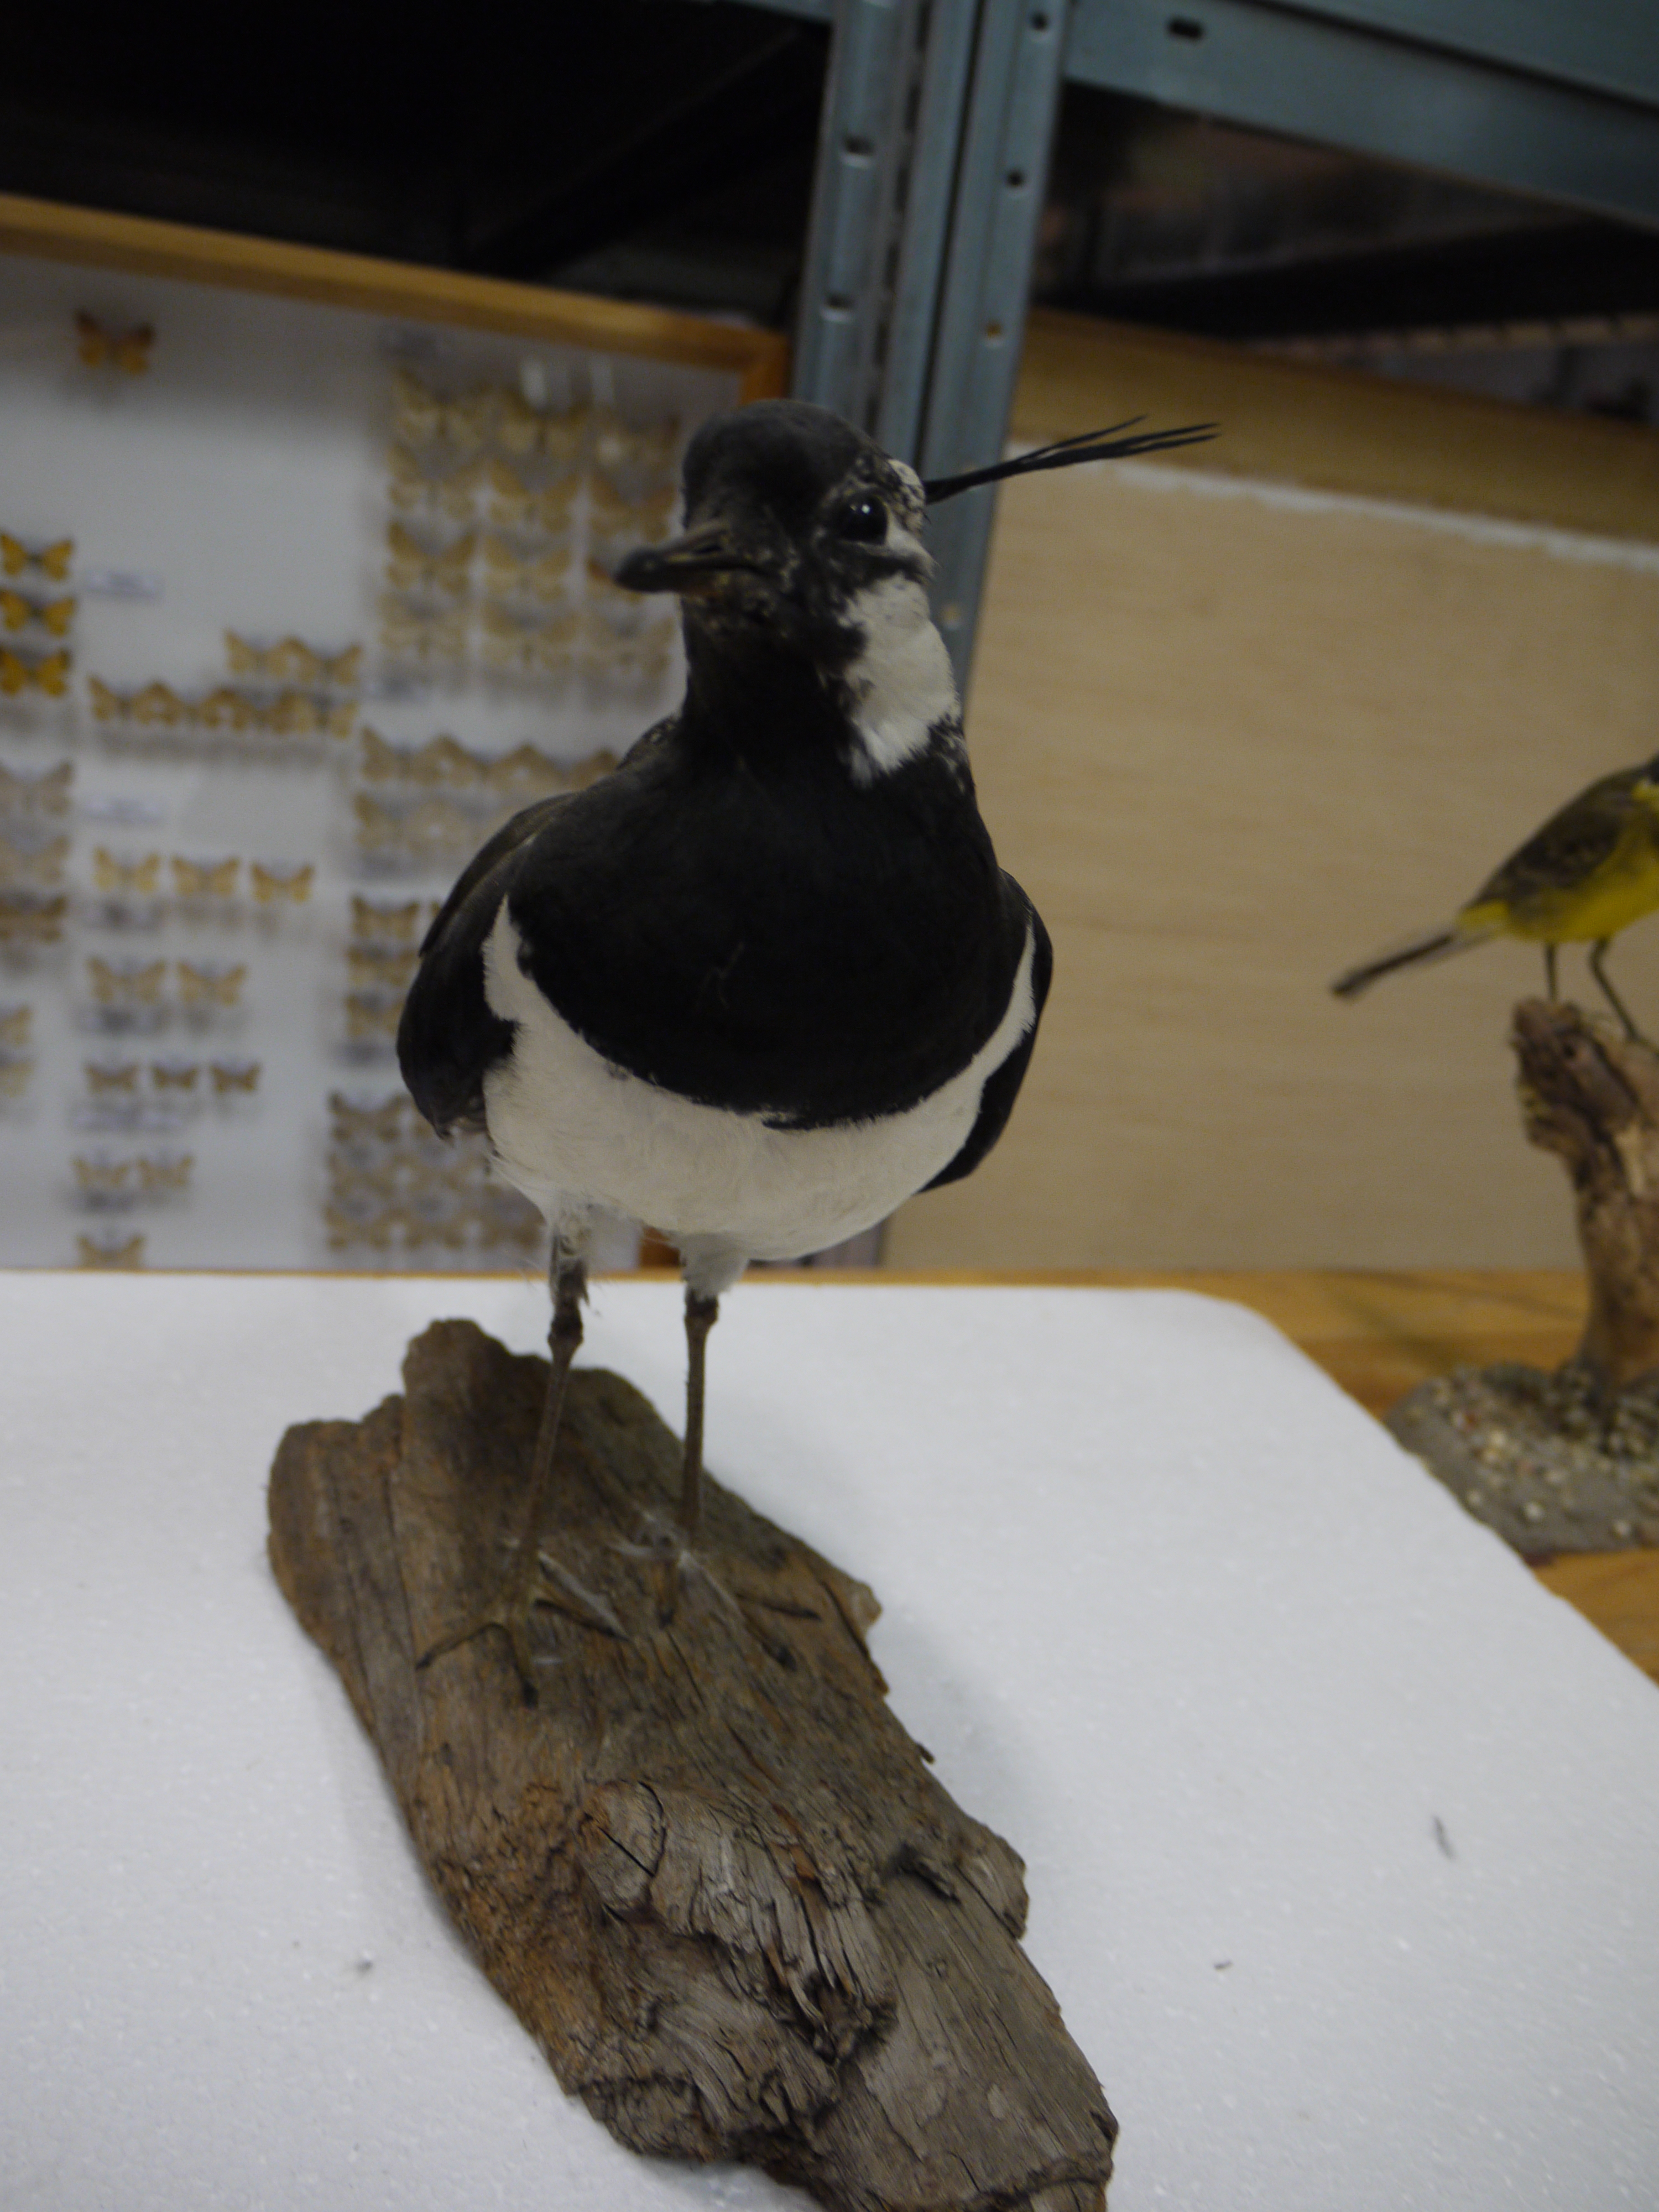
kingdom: Animalia
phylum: Chordata
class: Aves
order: Charadriiformes
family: Charadriidae
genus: Vanellus
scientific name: Vanellus vanellus
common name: Northern lapwing
